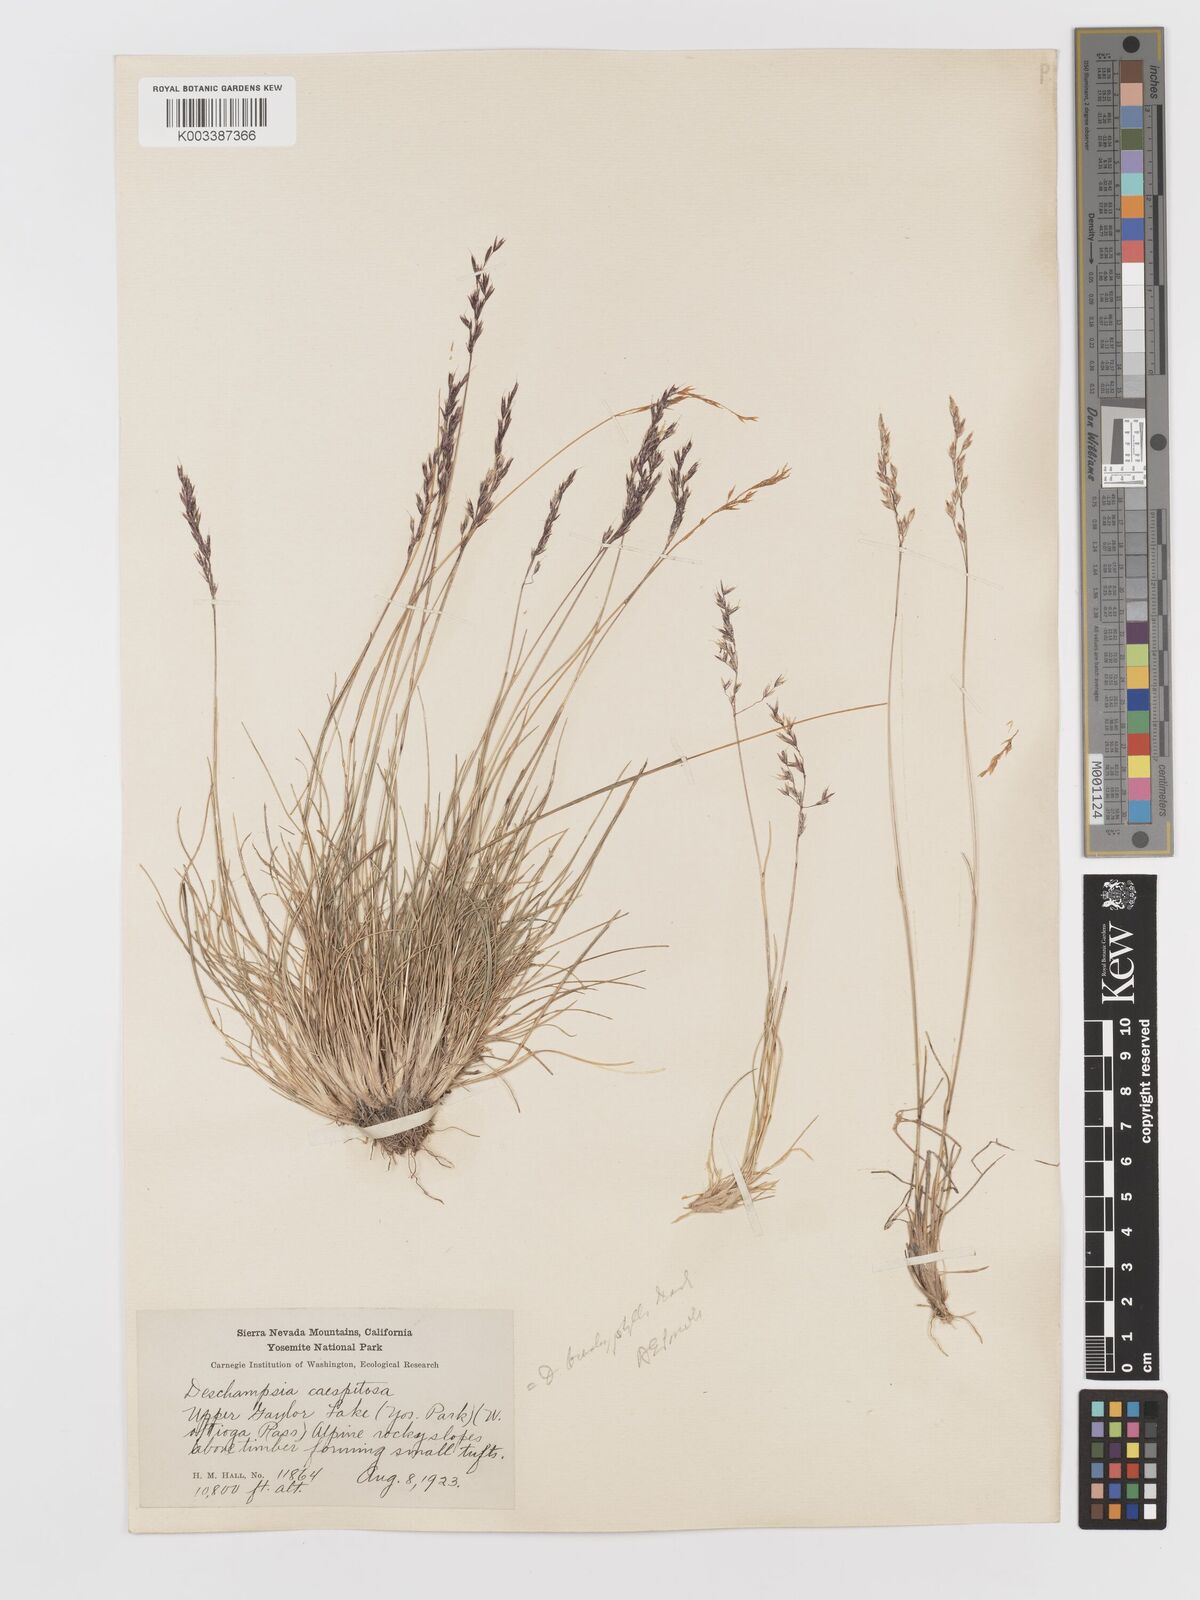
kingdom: Plantae
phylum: Tracheophyta
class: Liliopsida
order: Poales
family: Poaceae
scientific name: Poaceae
